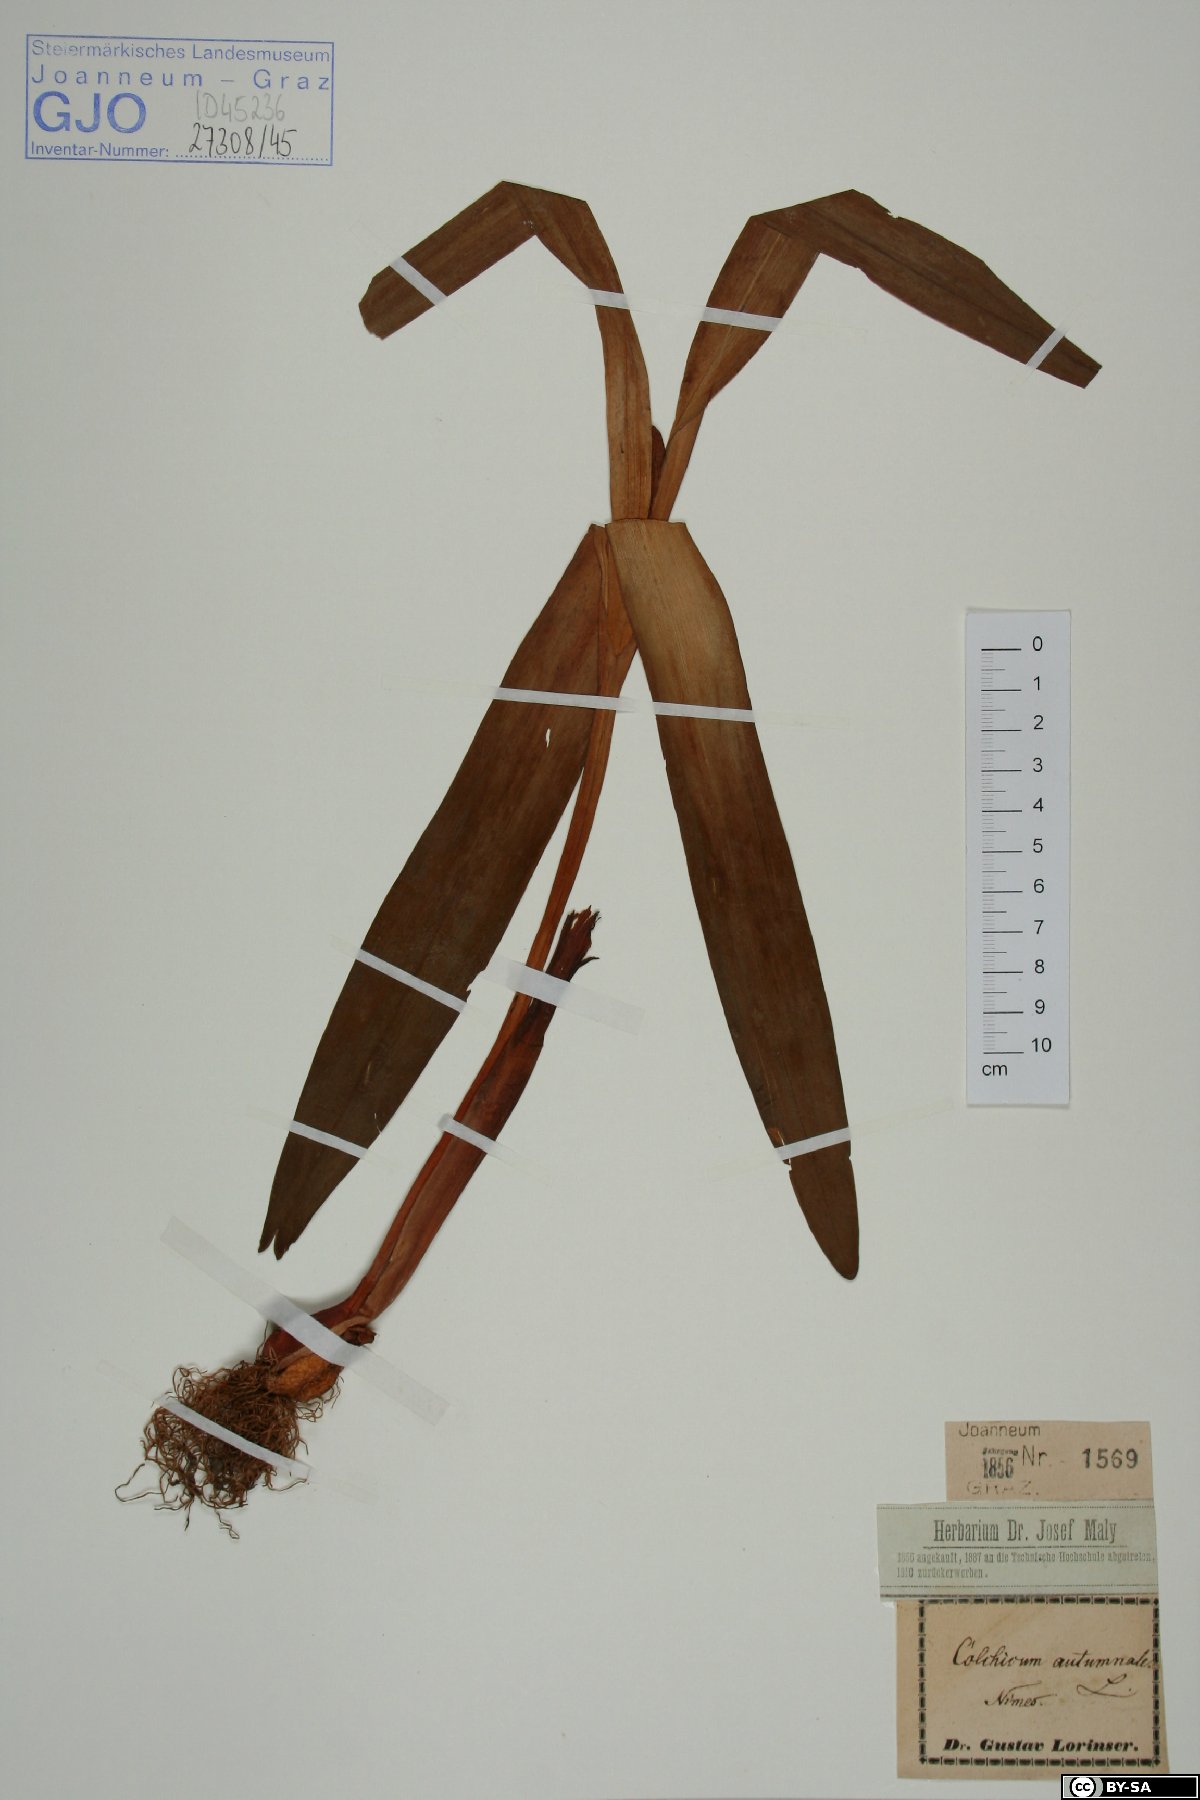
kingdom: Plantae
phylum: Tracheophyta
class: Liliopsida
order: Liliales
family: Colchicaceae
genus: Colchicum
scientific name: Colchicum autumnale
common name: Autumn crocus
